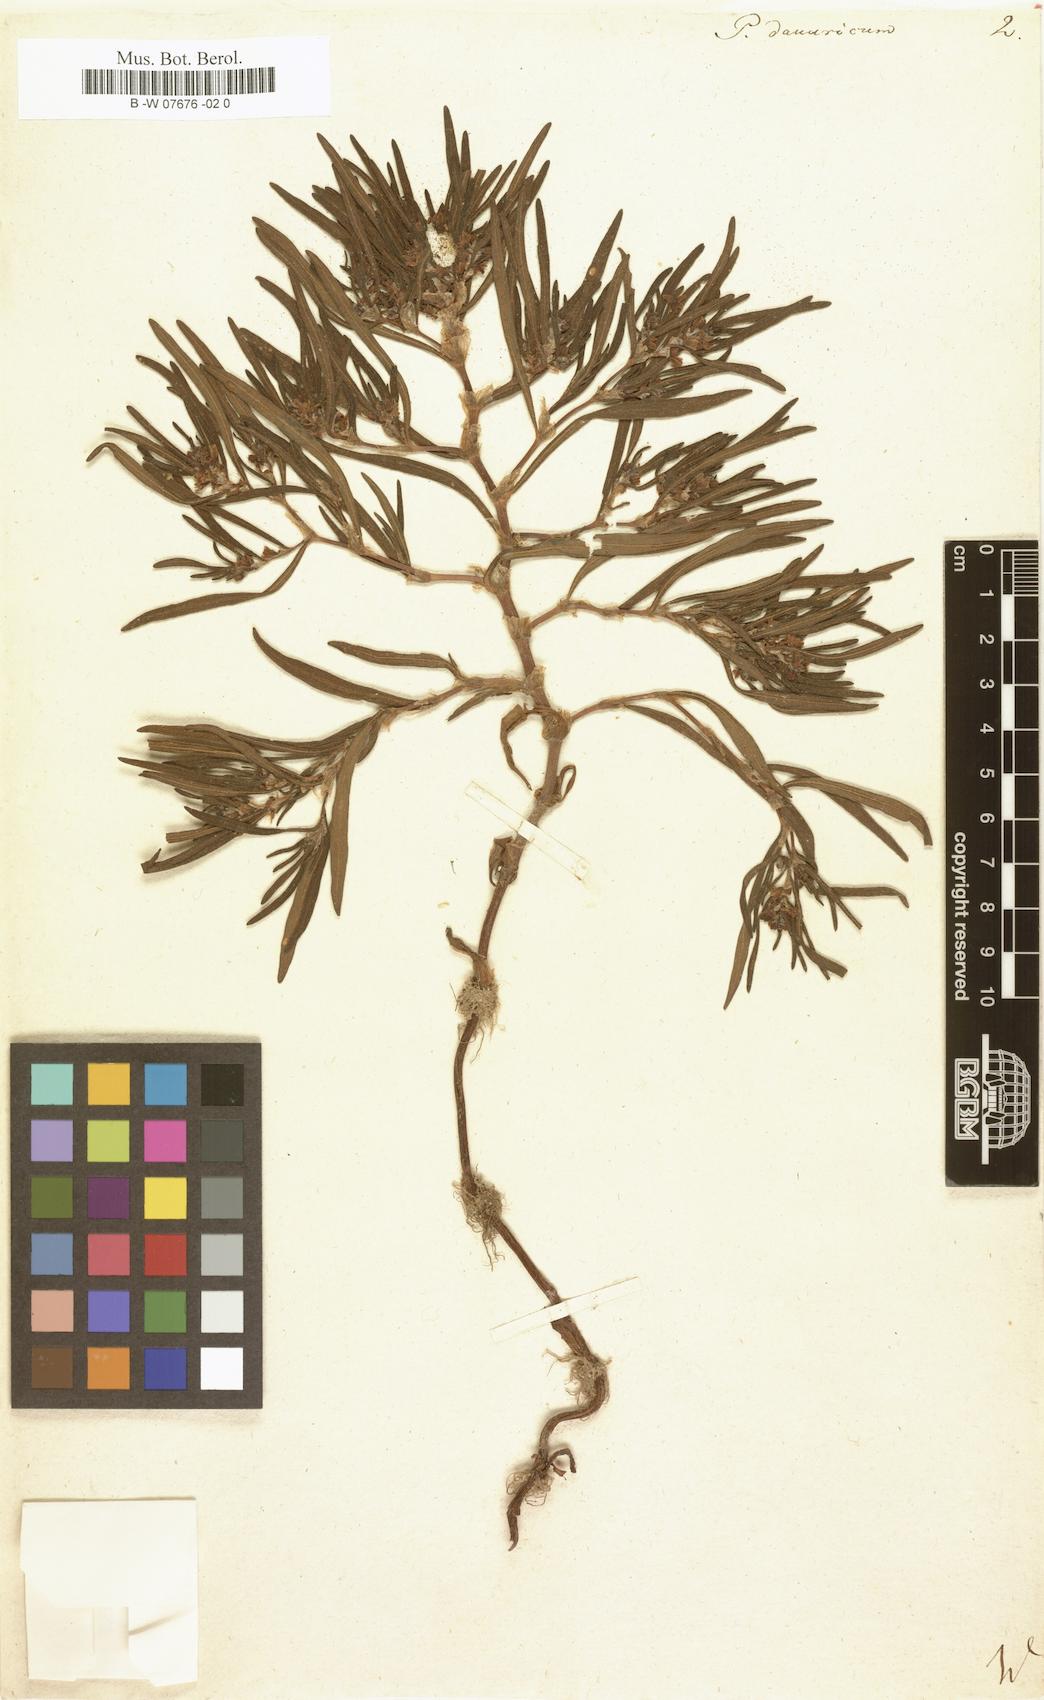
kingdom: Plantae
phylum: Tracheophyta
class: Magnoliopsida
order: Caryophyllales
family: Polygonaceae
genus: Koenigia
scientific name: Koenigia ocreata
